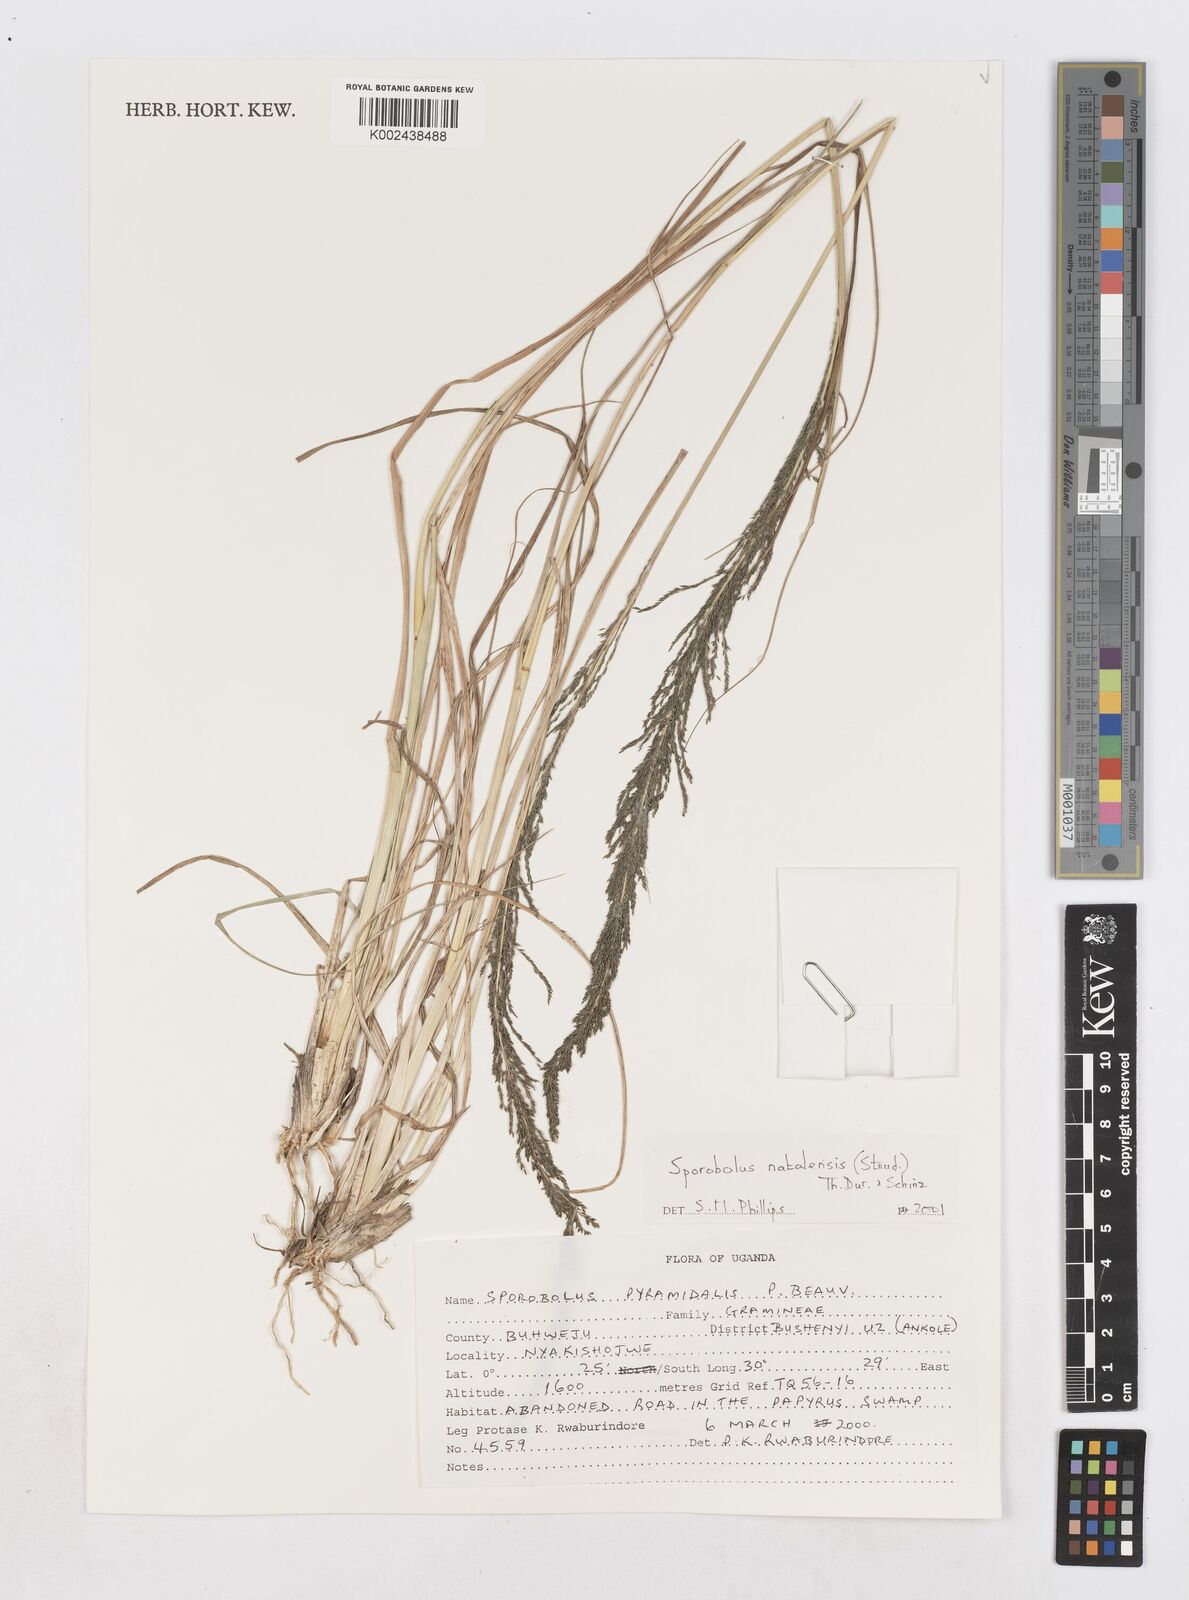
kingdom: Plantae
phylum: Tracheophyta
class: Liliopsida
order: Poales
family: Poaceae
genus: Sporobolus
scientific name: Sporobolus natalensis
